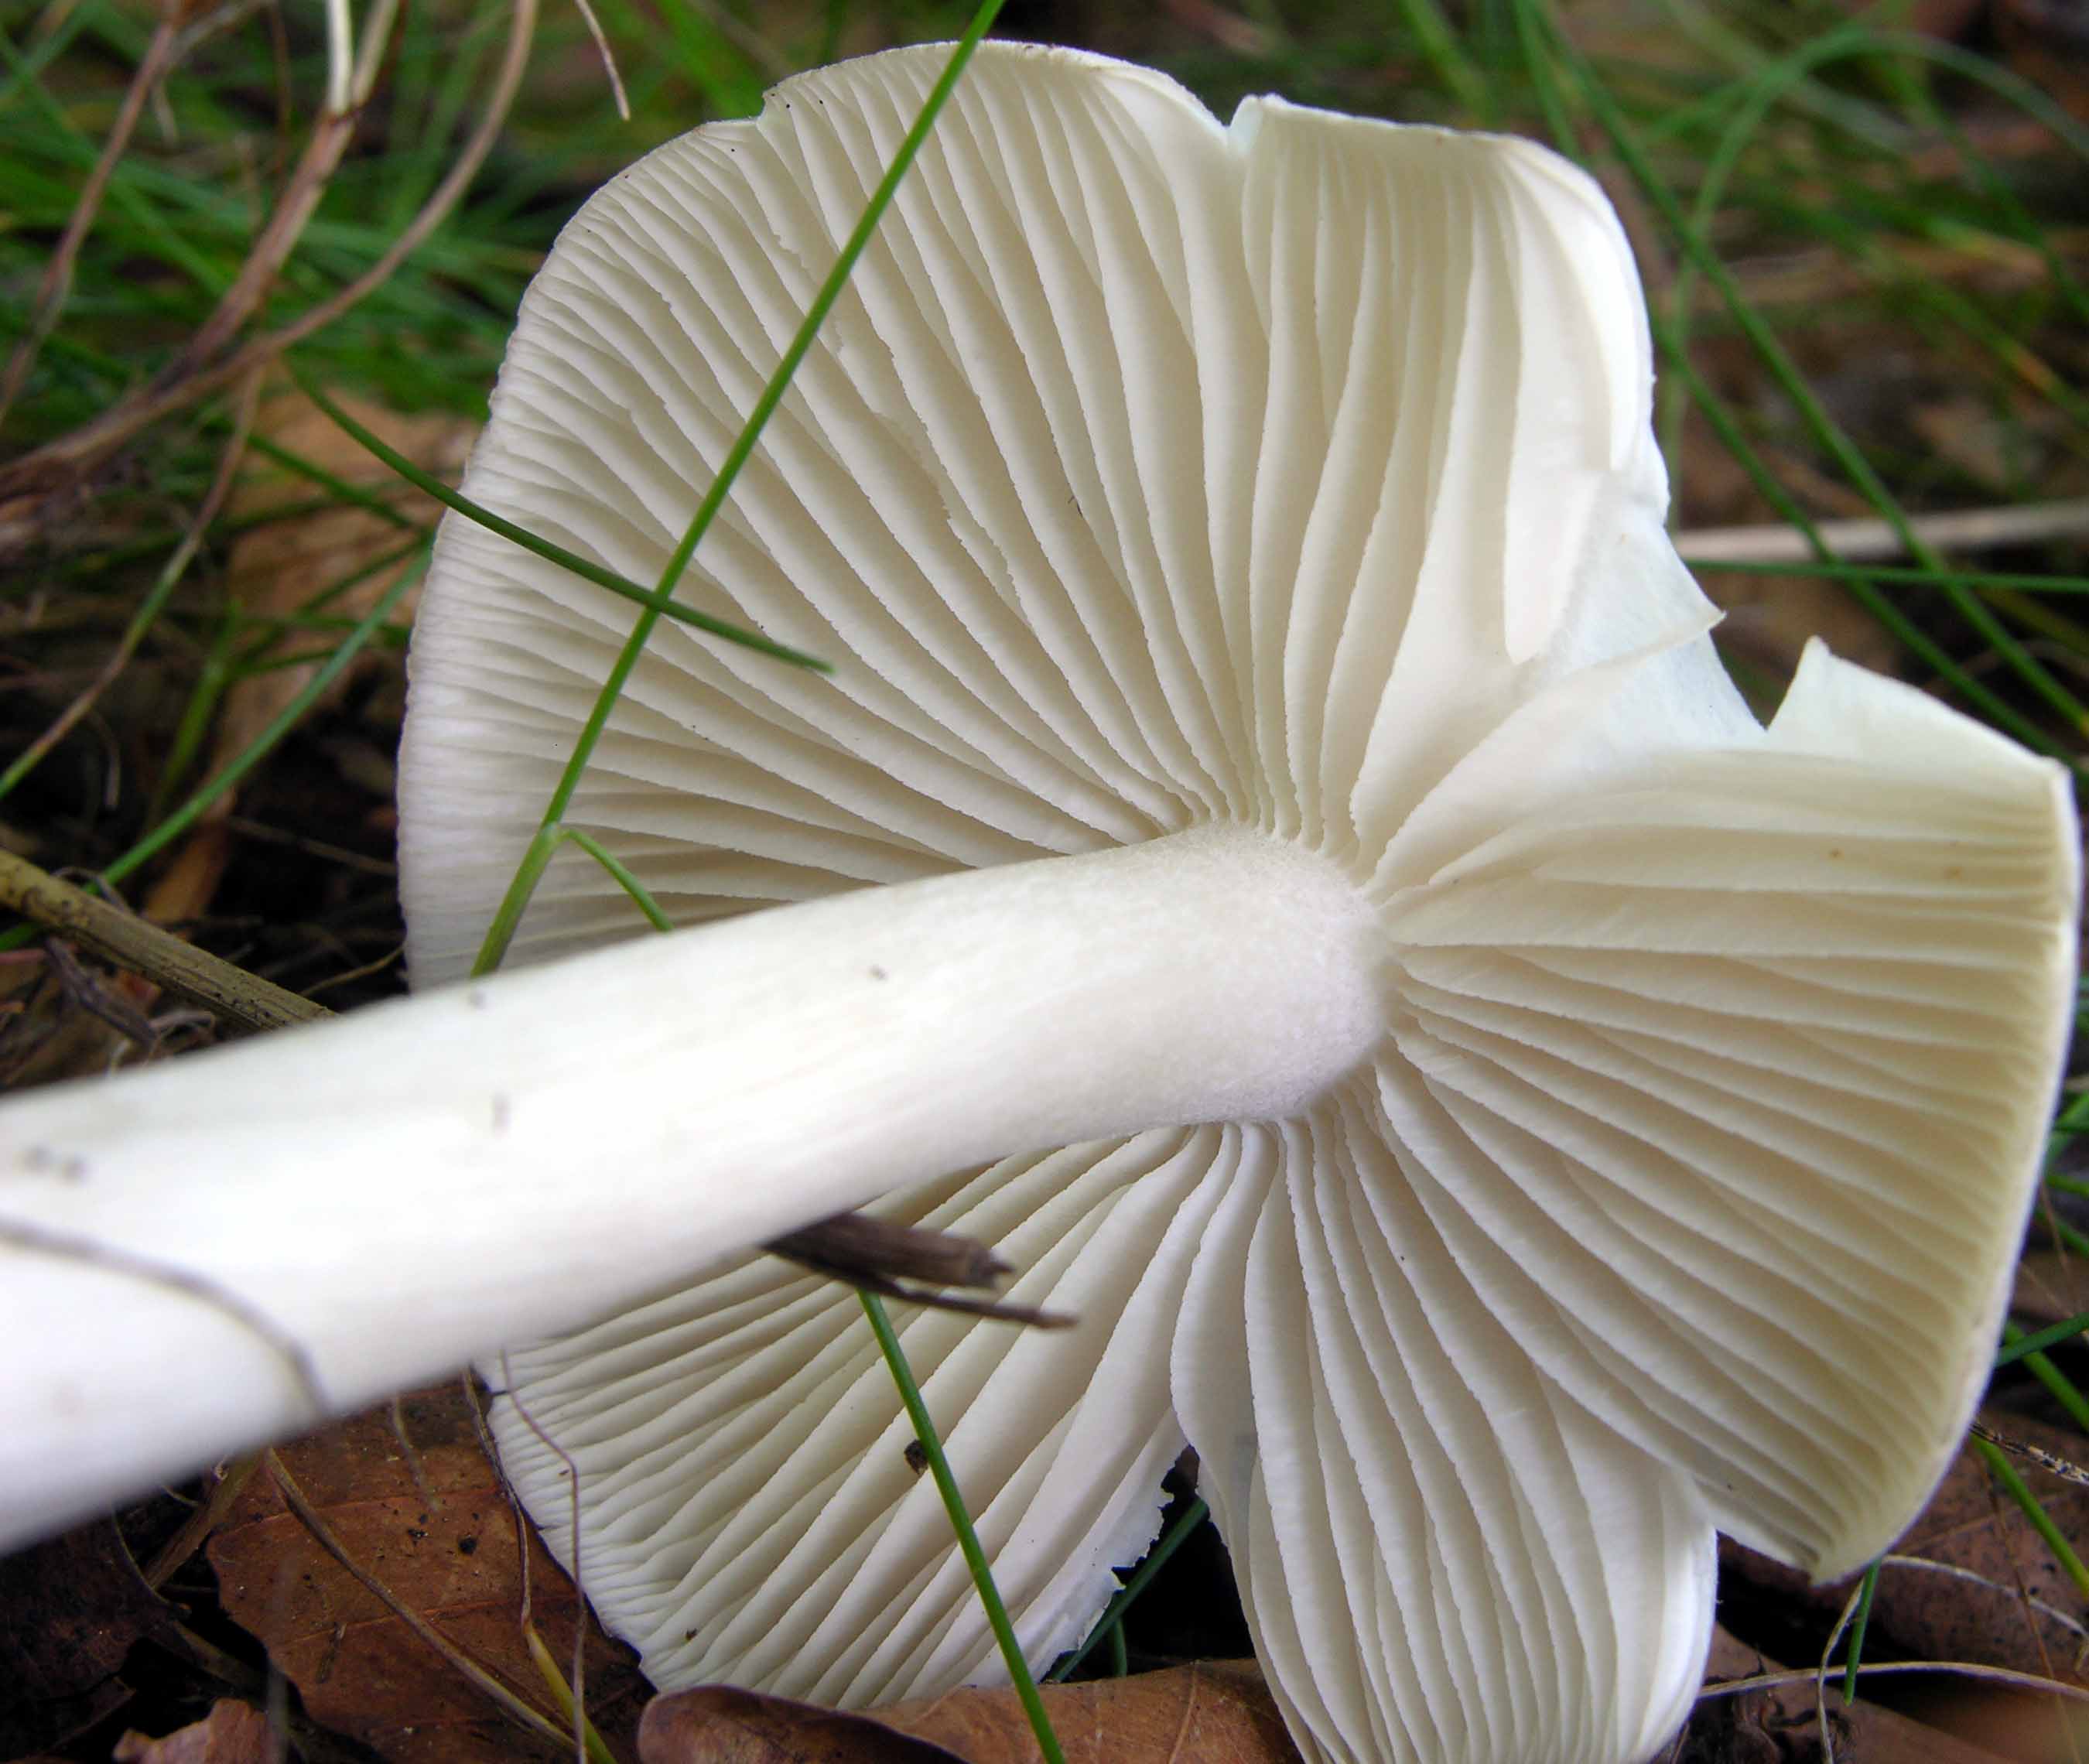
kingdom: Fungi
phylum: Basidiomycota
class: Agaricomycetes
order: Agaricales
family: Tricholomataceae
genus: Megacollybia
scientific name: Megacollybia platyphylla
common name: bredbladet væbnerhat
